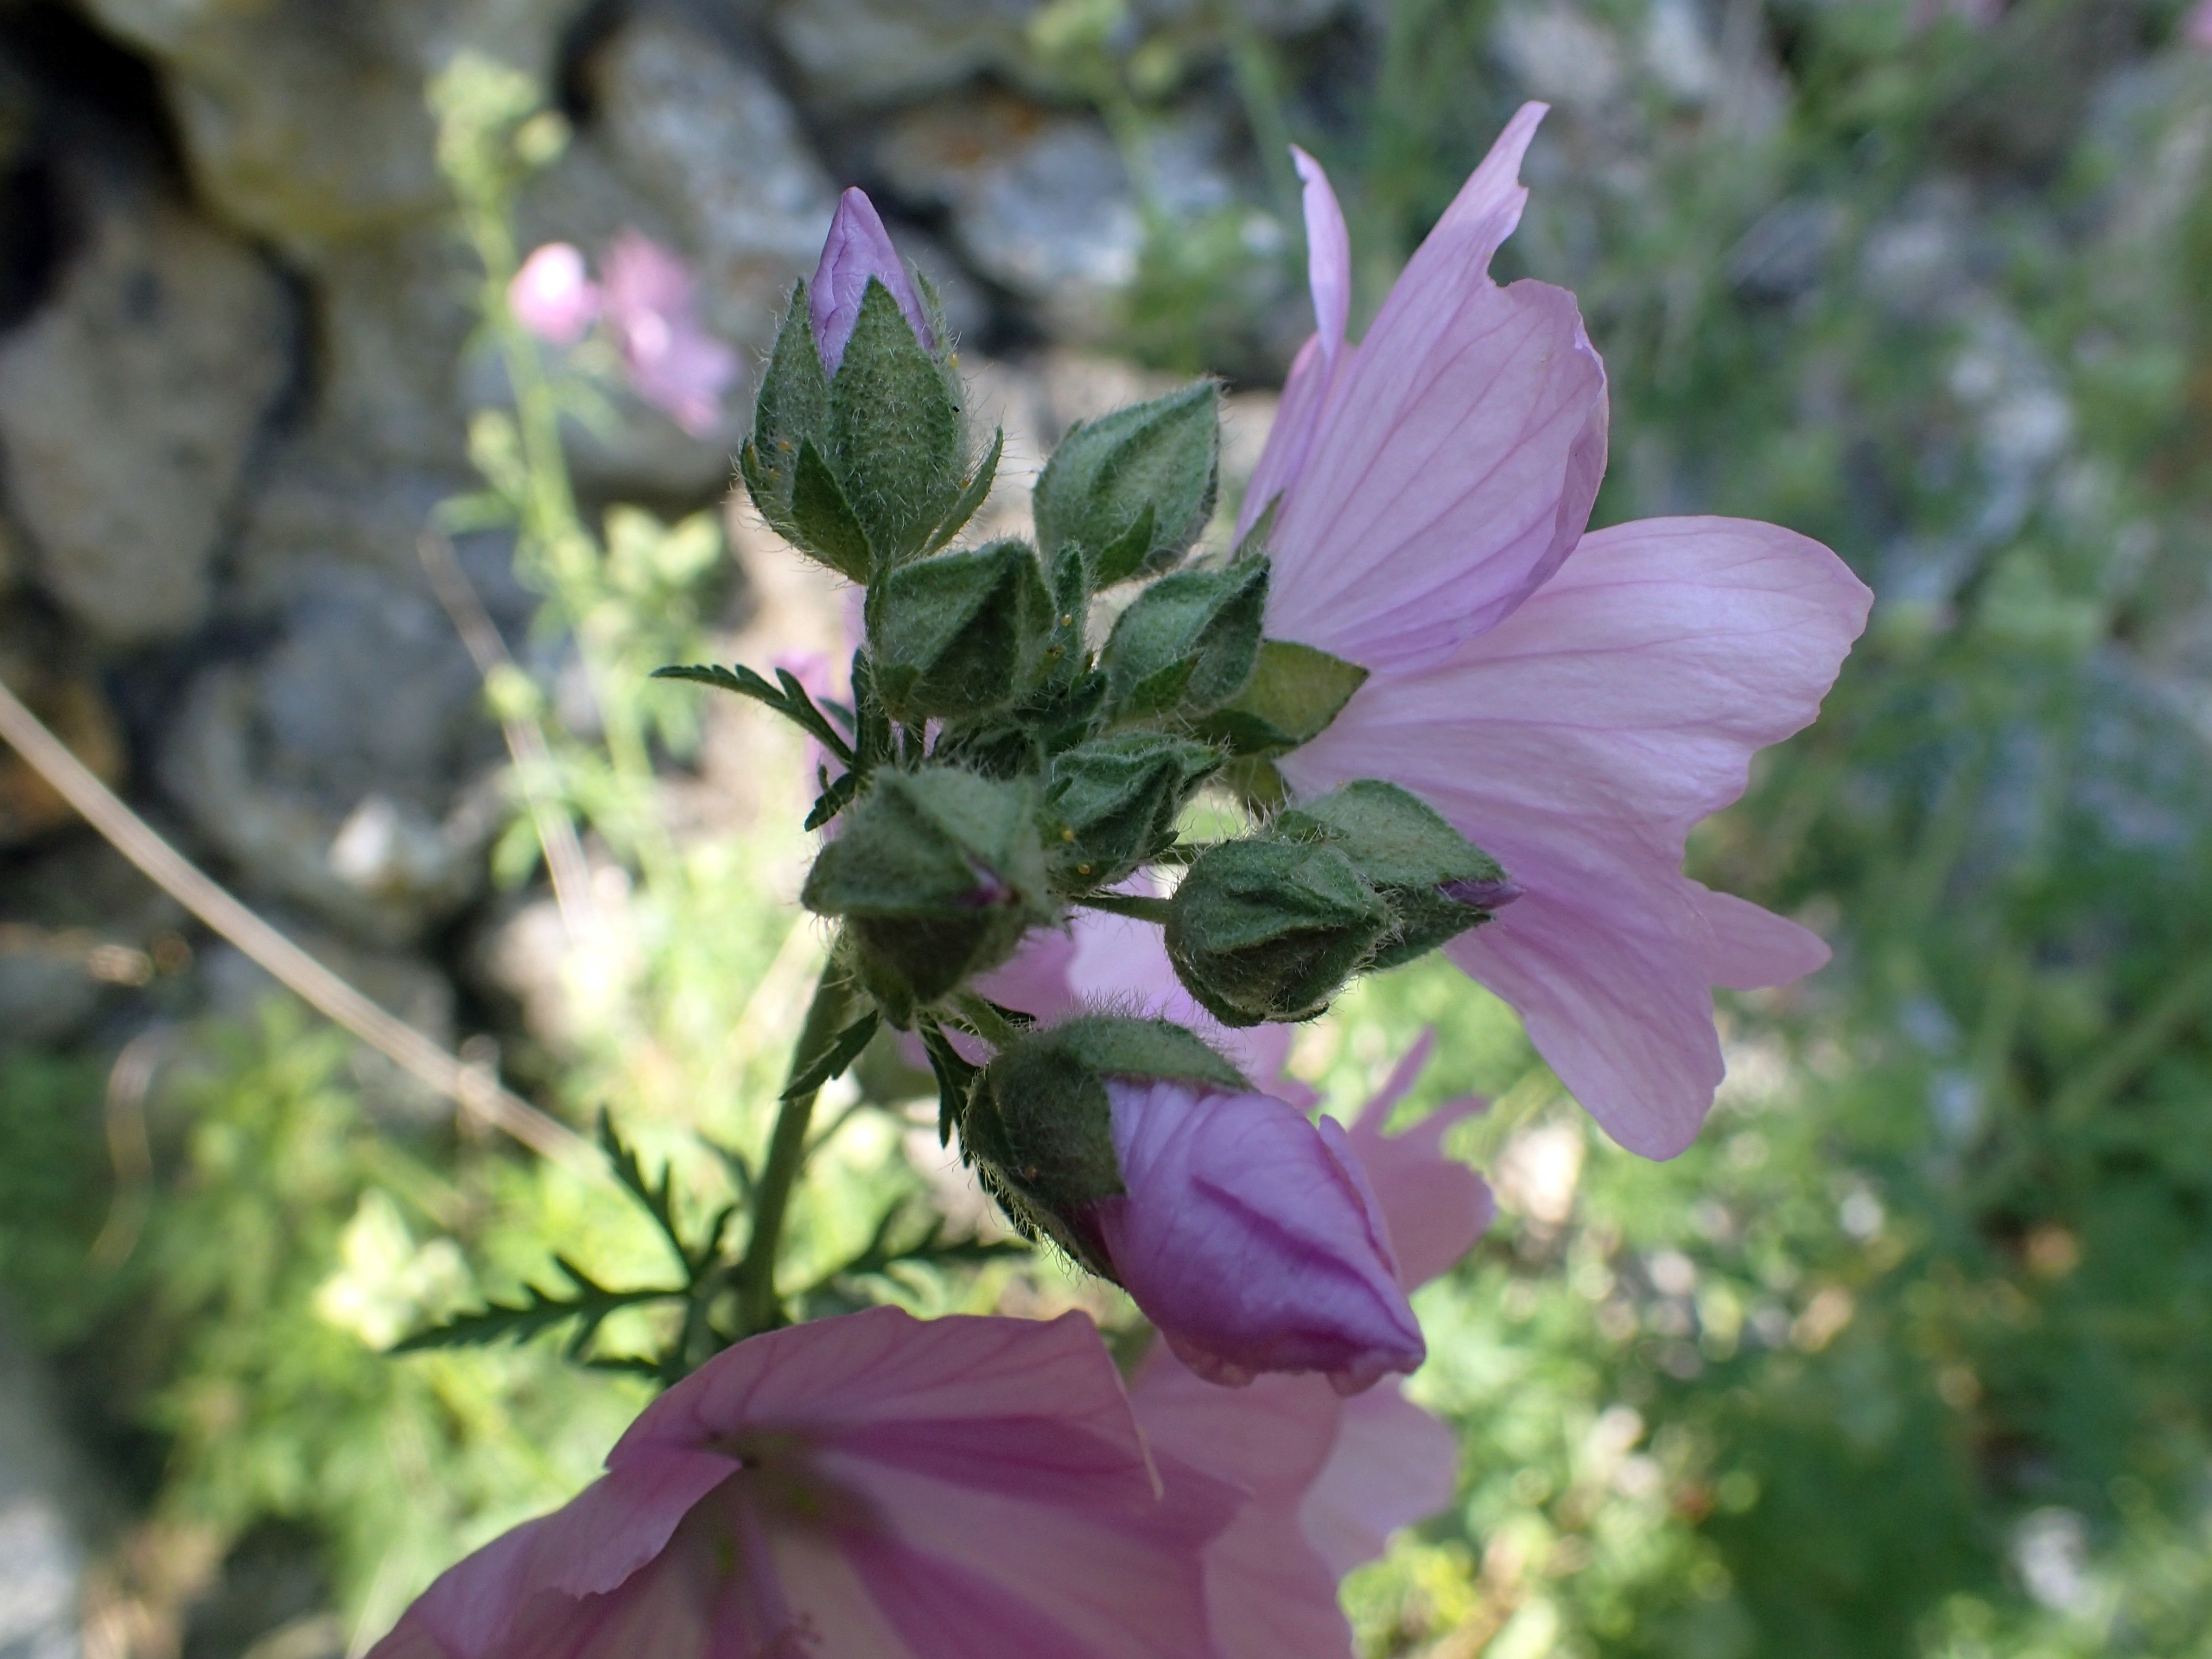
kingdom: Plantae
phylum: Tracheophyta
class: Magnoliopsida
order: Malvales
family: Malvaceae
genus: Malva
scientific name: Malva moschata
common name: Moskus-katost
